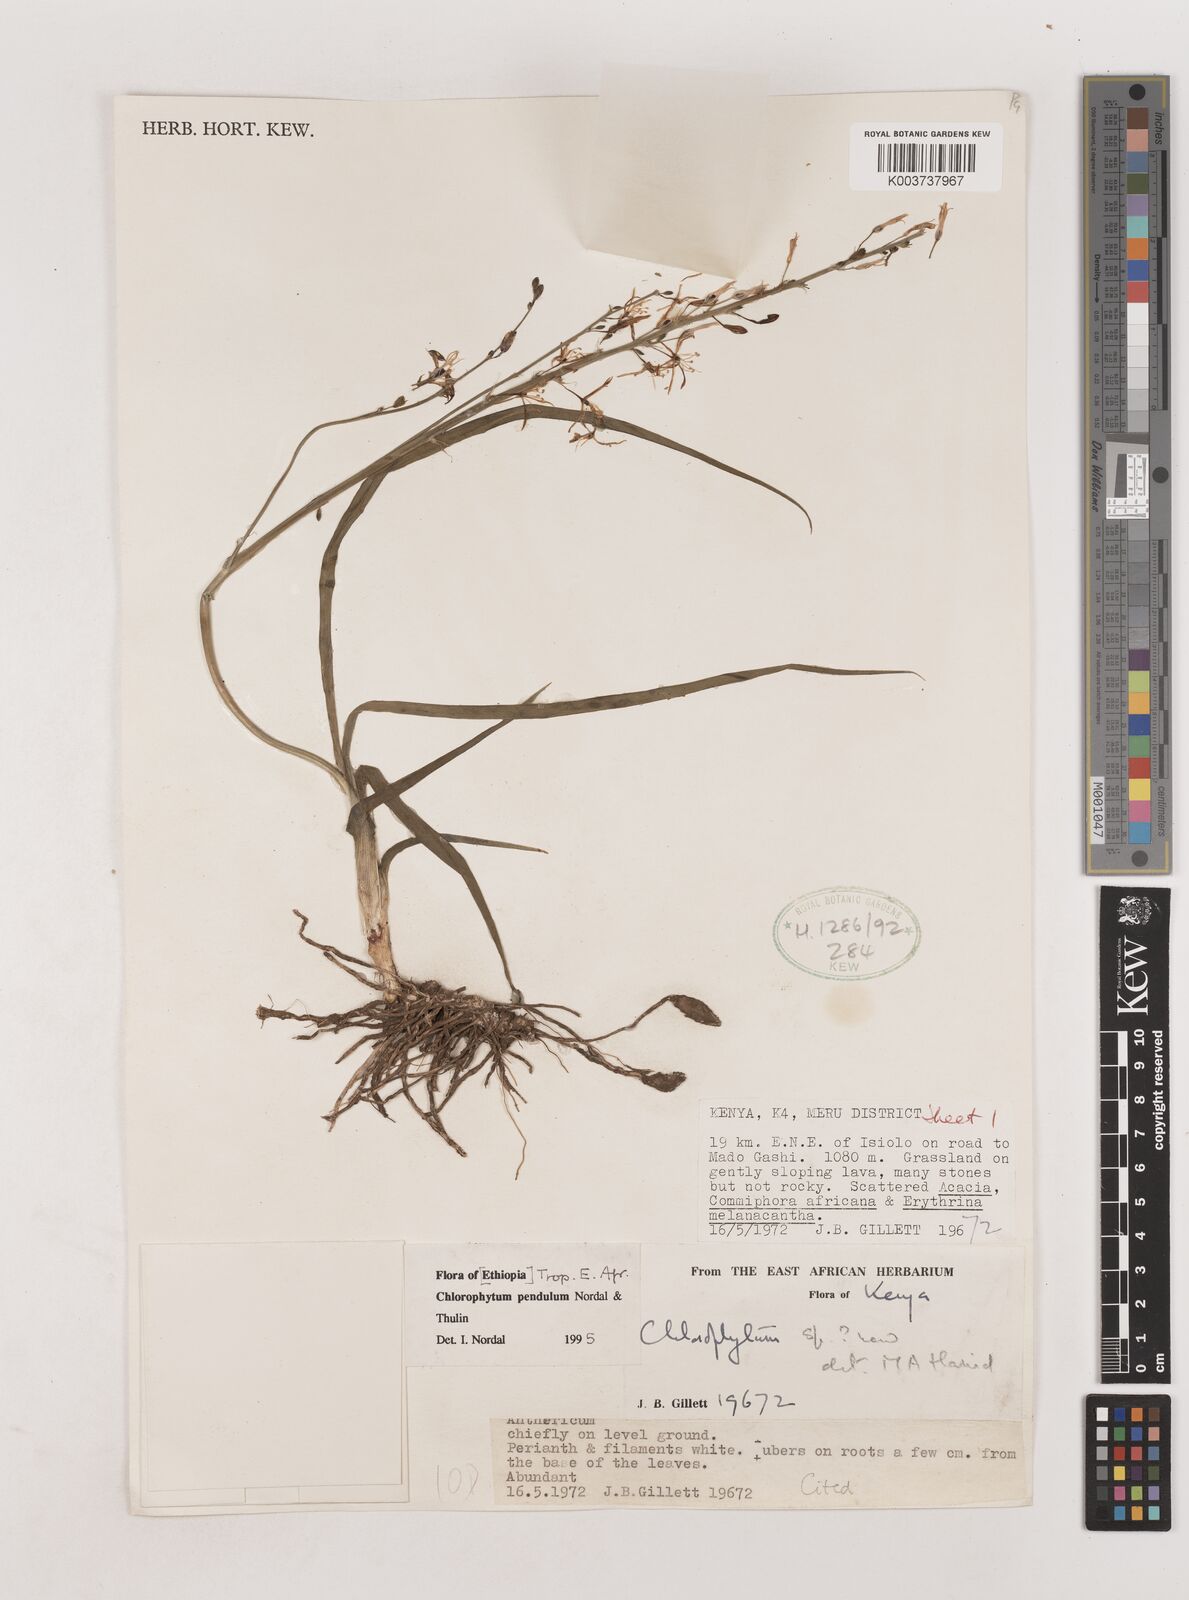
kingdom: Plantae
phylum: Tracheophyta
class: Liliopsida
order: Asparagales
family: Asparagaceae
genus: Chlorophytum
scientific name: Chlorophytum pendulum
